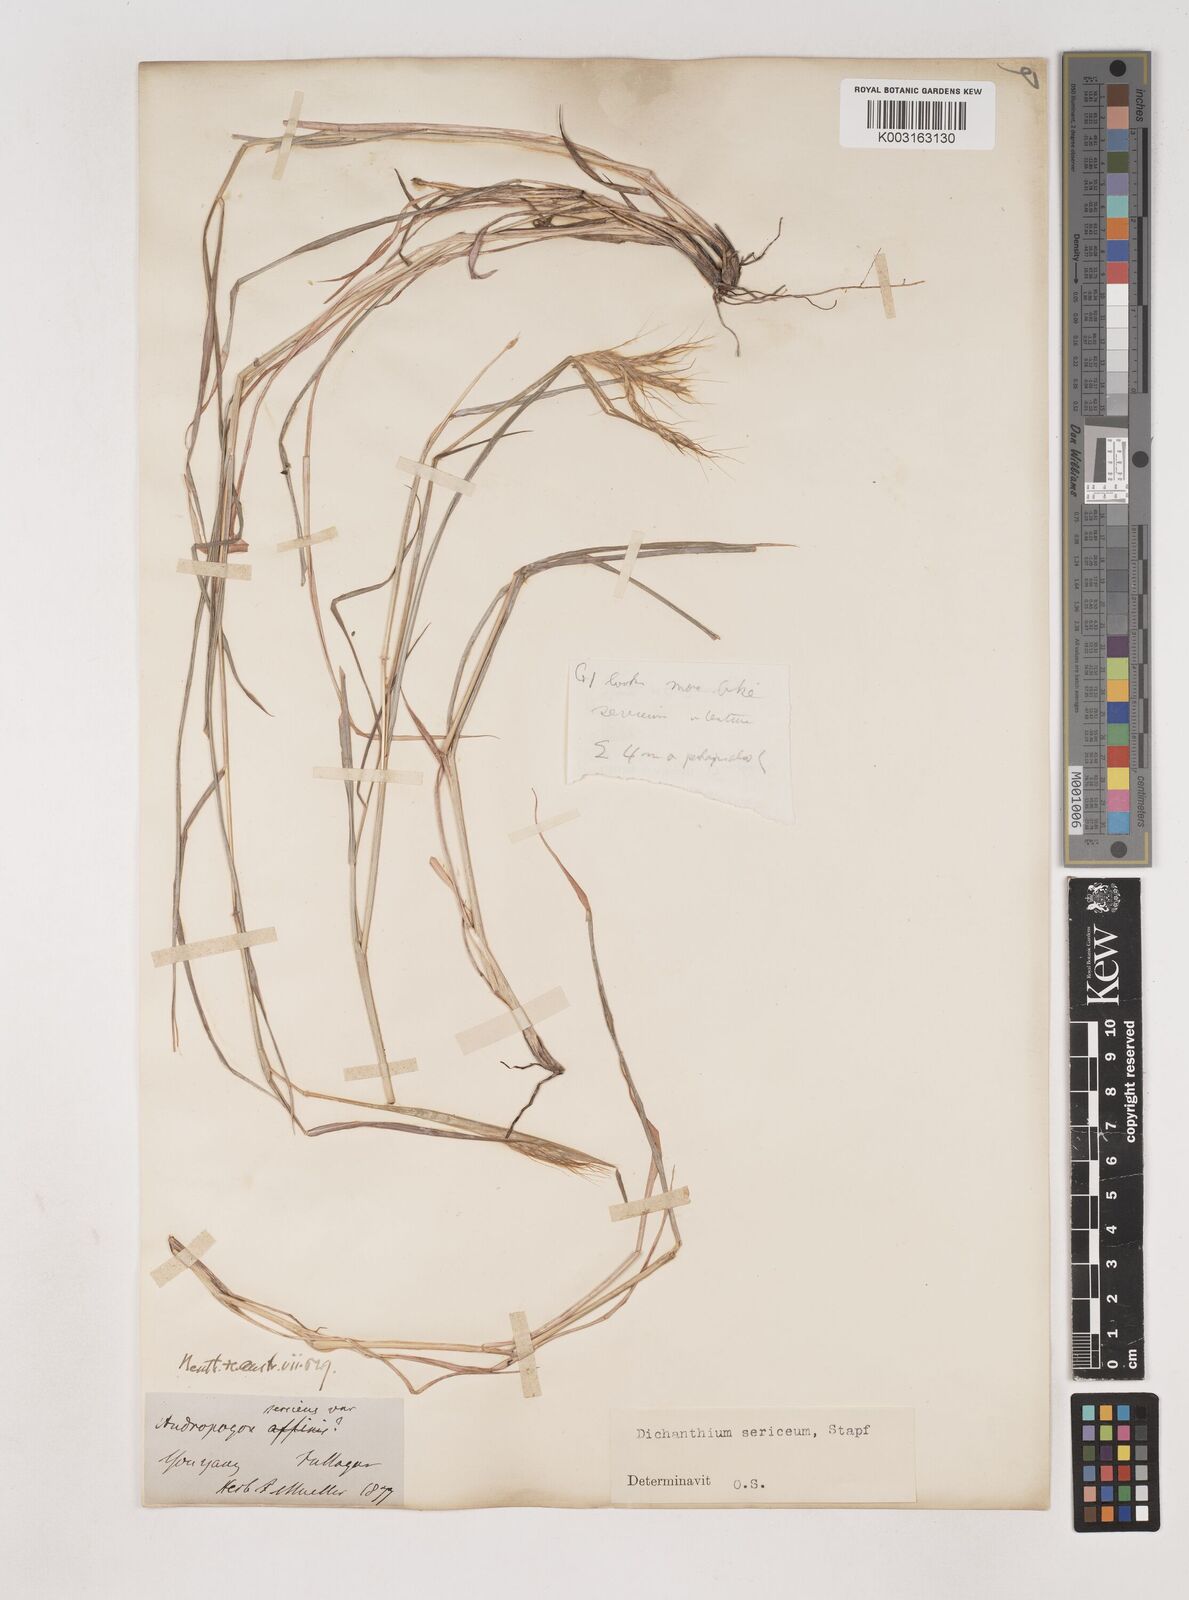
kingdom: Plantae
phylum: Tracheophyta
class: Liliopsida
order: Poales
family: Poaceae
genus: Dichanthium
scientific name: Dichanthium sericeum
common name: Silky bluestem
